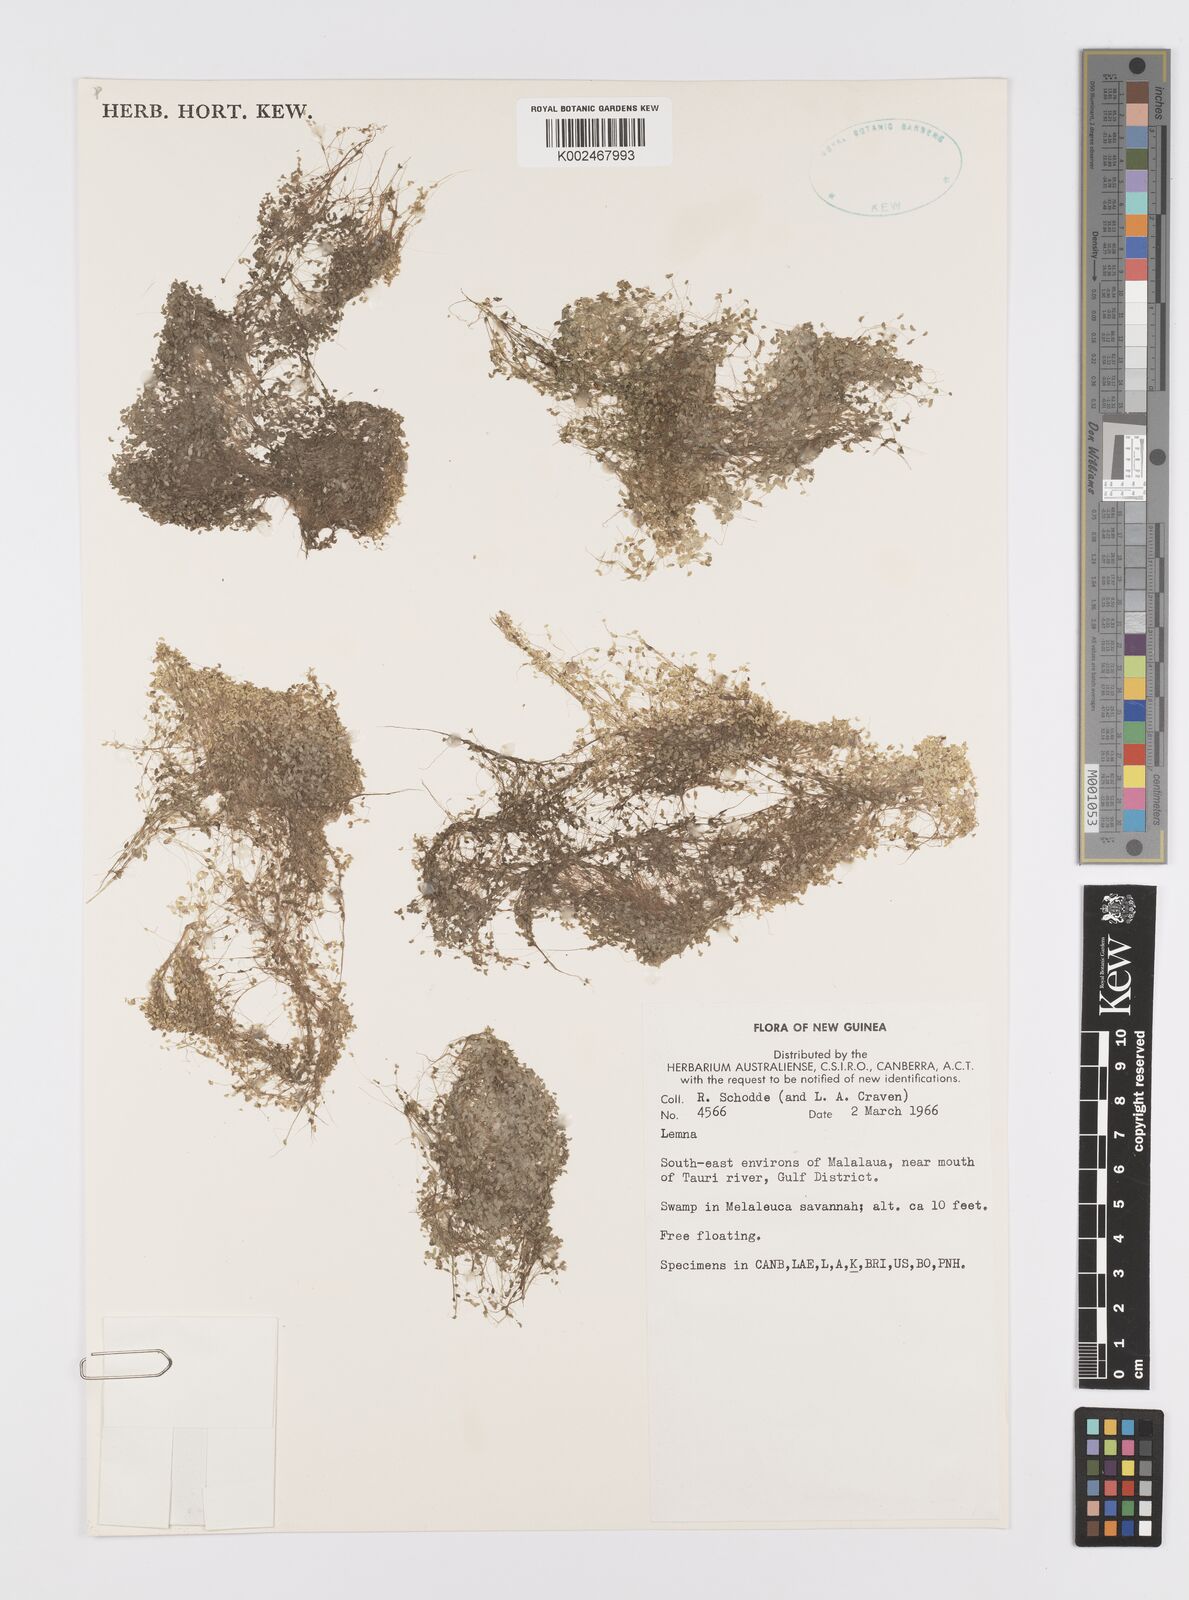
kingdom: Plantae
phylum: Tracheophyta
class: Liliopsida
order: Alismatales
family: Araceae
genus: Lemna
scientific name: Lemna
